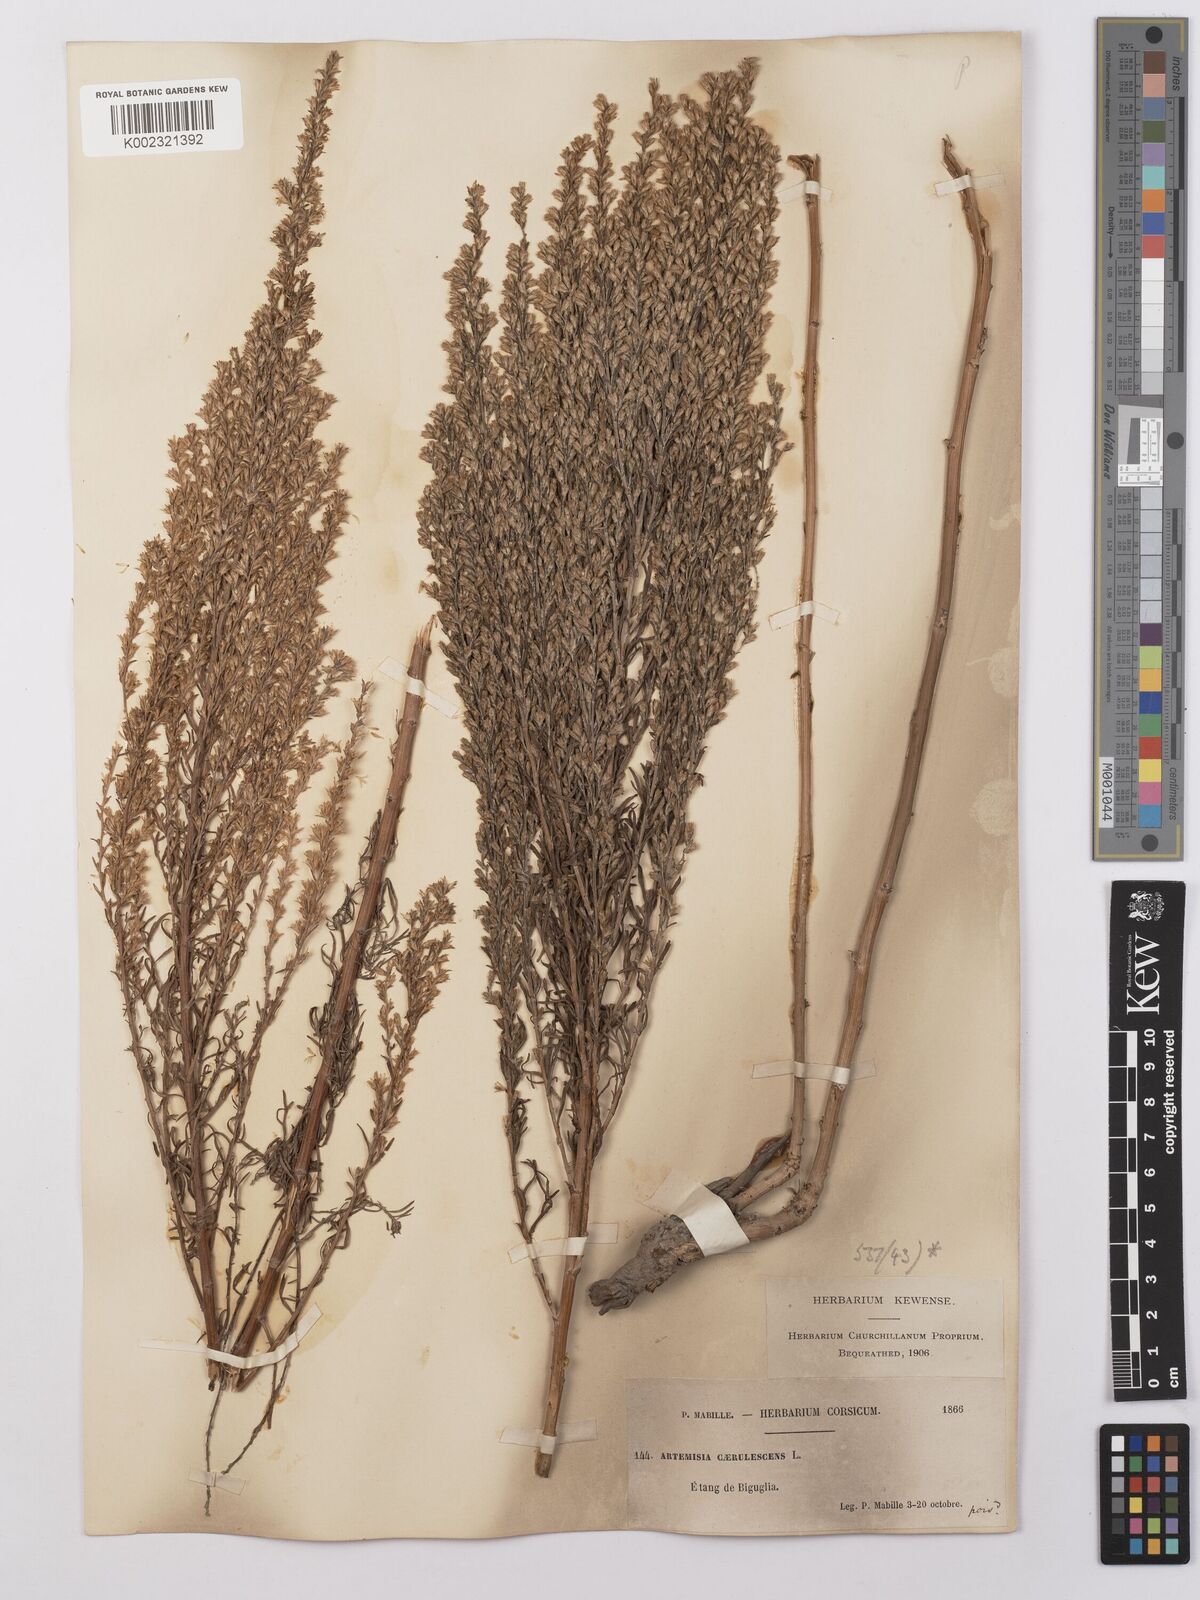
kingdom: Plantae
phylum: Tracheophyta
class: Magnoliopsida
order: Asterales
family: Asteraceae
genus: Artemisia
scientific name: Artemisia caerulescens
